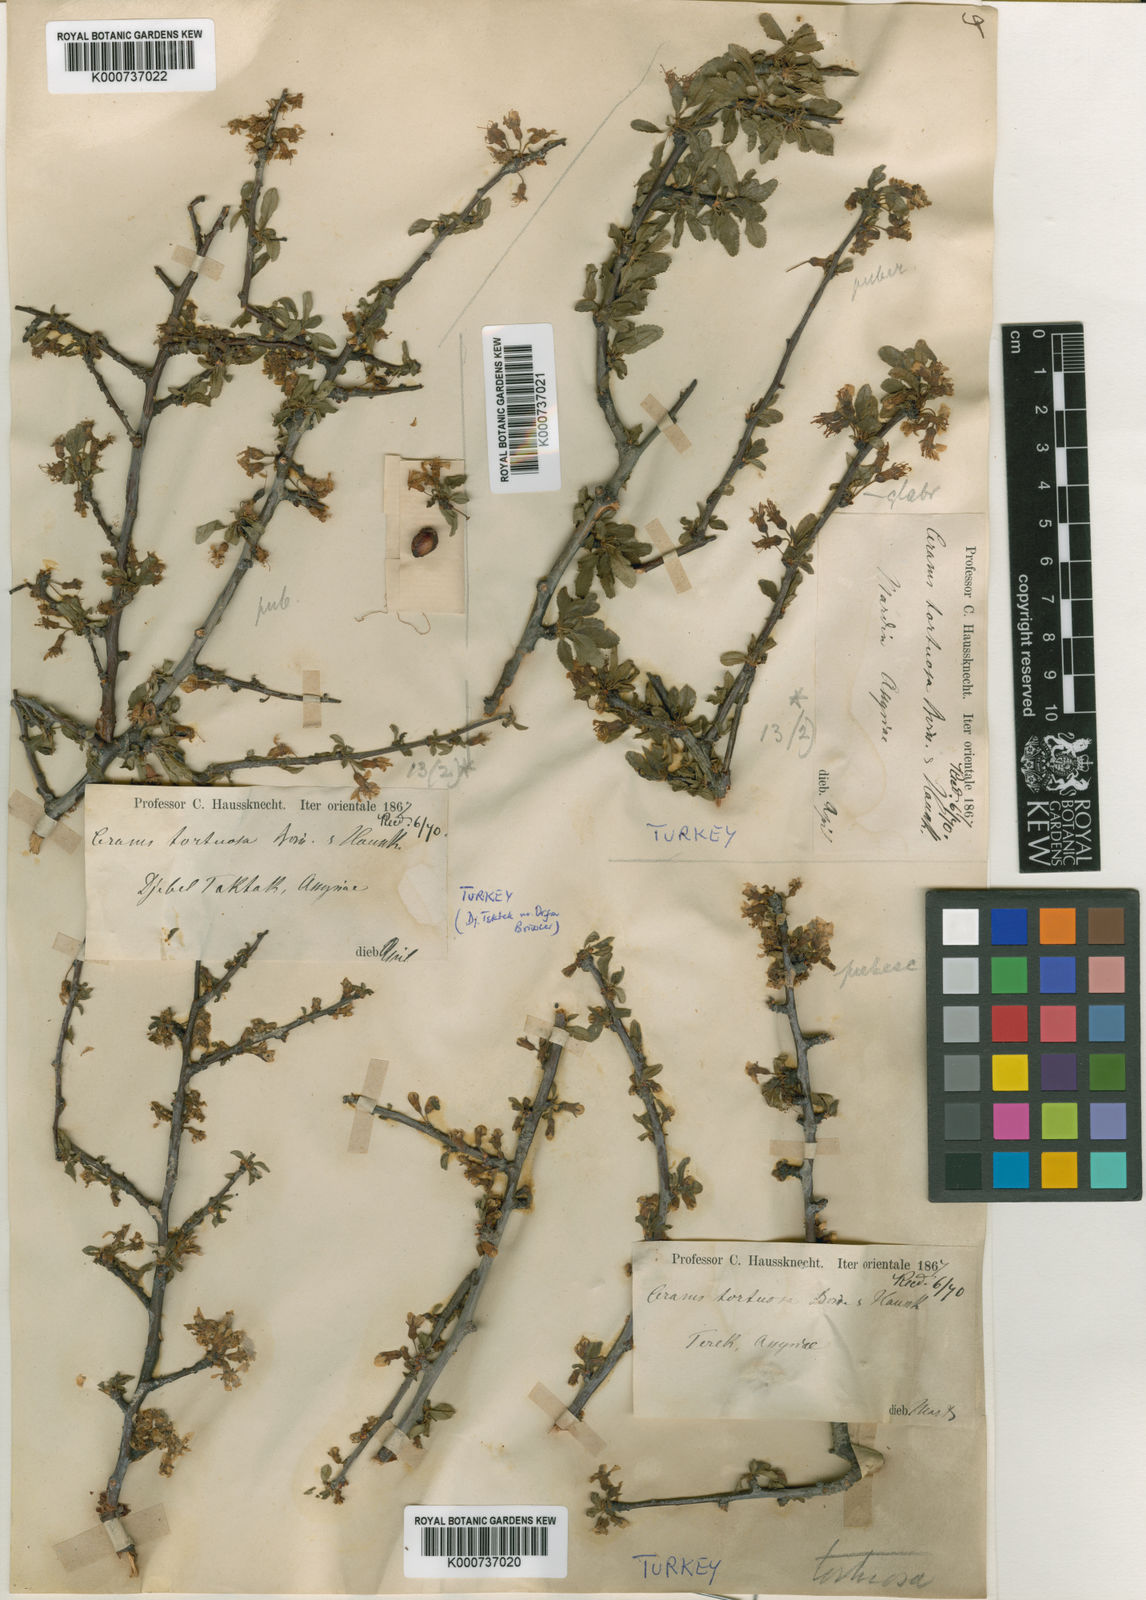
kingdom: Plantae
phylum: Tracheophyta
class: Magnoliopsida
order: Rosales
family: Rosaceae
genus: Prunus
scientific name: Prunus microcarpa
